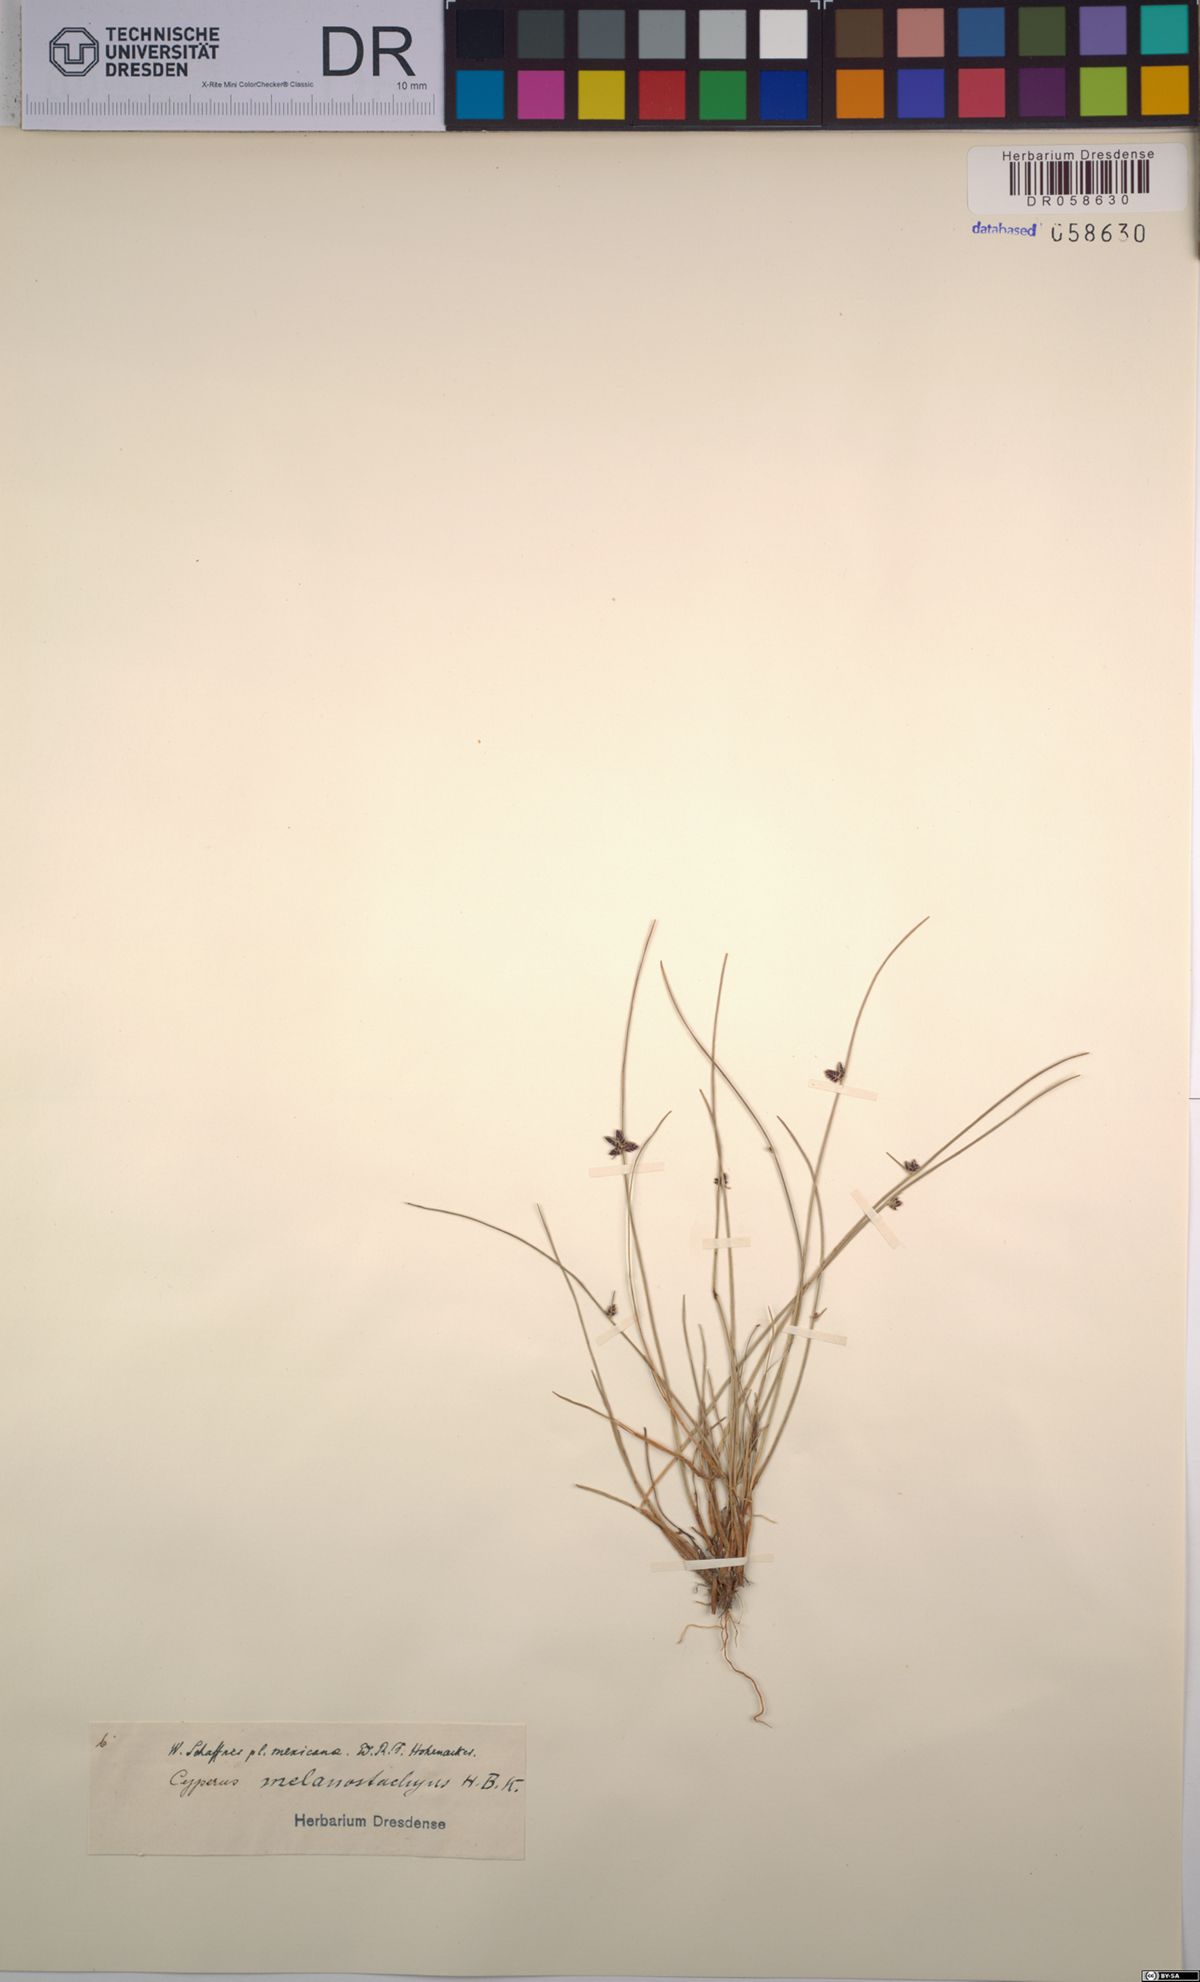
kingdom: Plantae
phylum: Tracheophyta
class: Liliopsida
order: Poales
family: Cyperaceae
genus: Cyperus
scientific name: Cyperus melanostachyus
